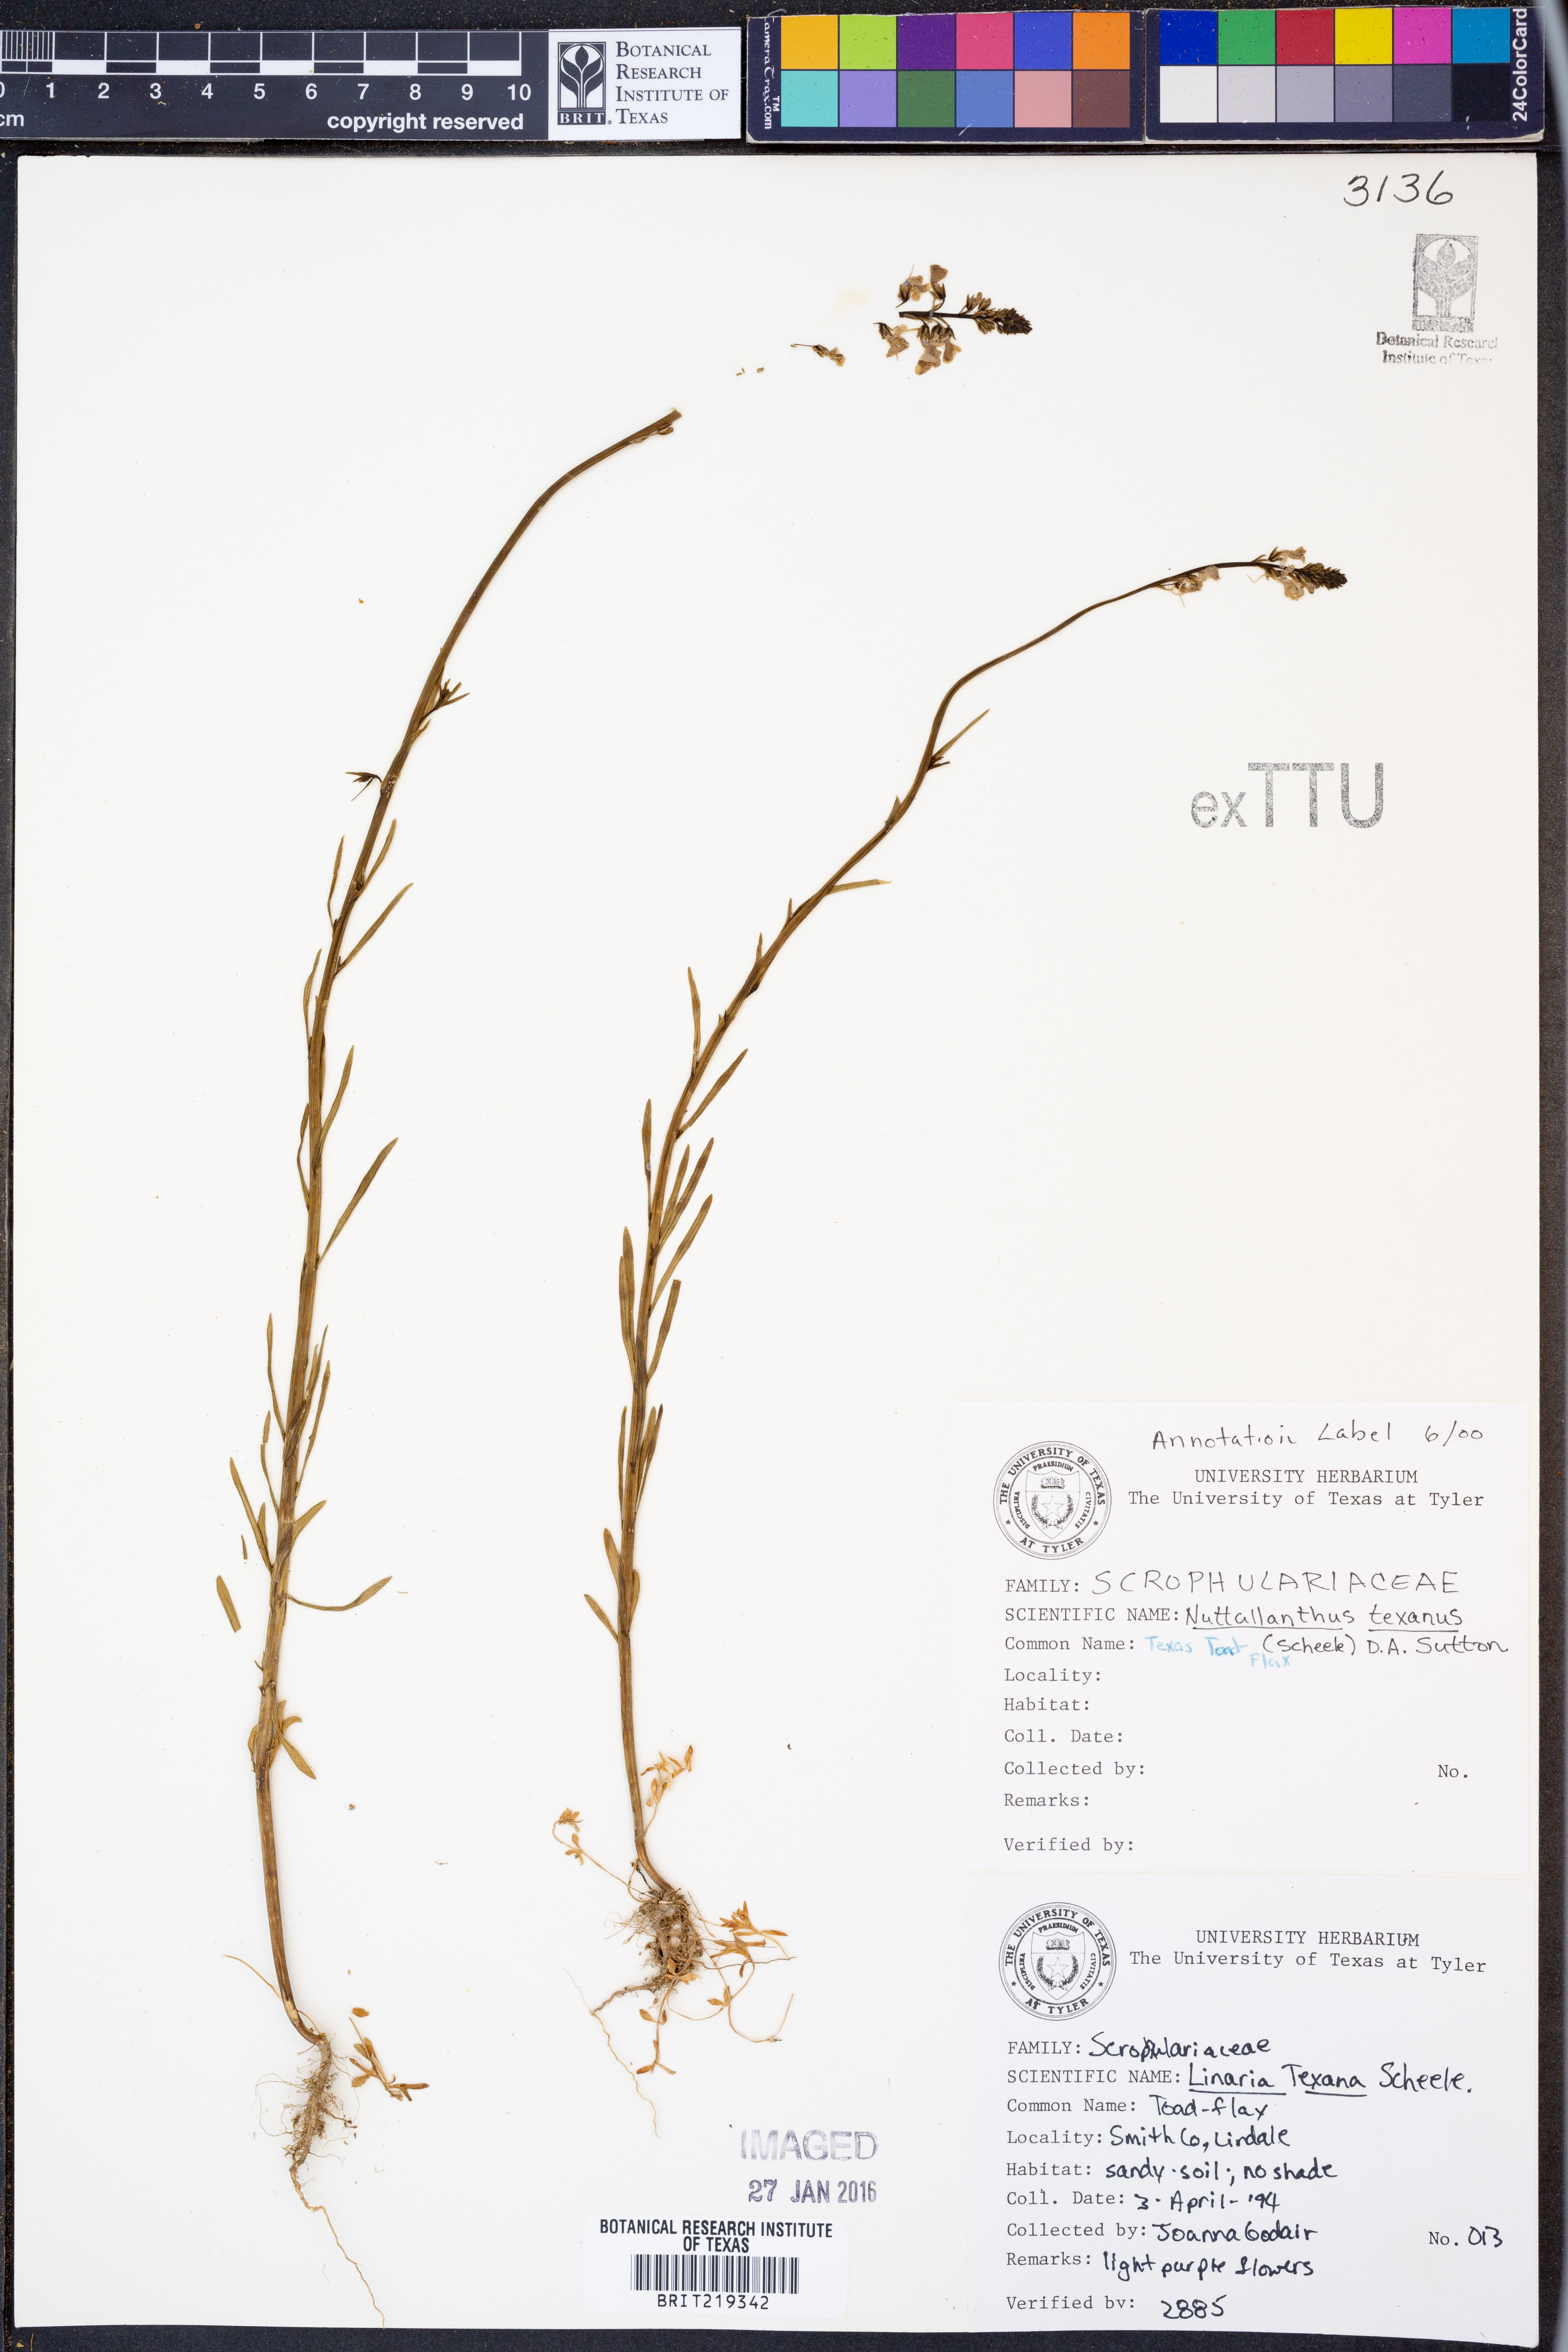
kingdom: Plantae
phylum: Tracheophyta
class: Magnoliopsida
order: Lamiales
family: Plantaginaceae
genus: Nuttallanthus
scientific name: Nuttallanthus texanus
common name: Texas toadflax
